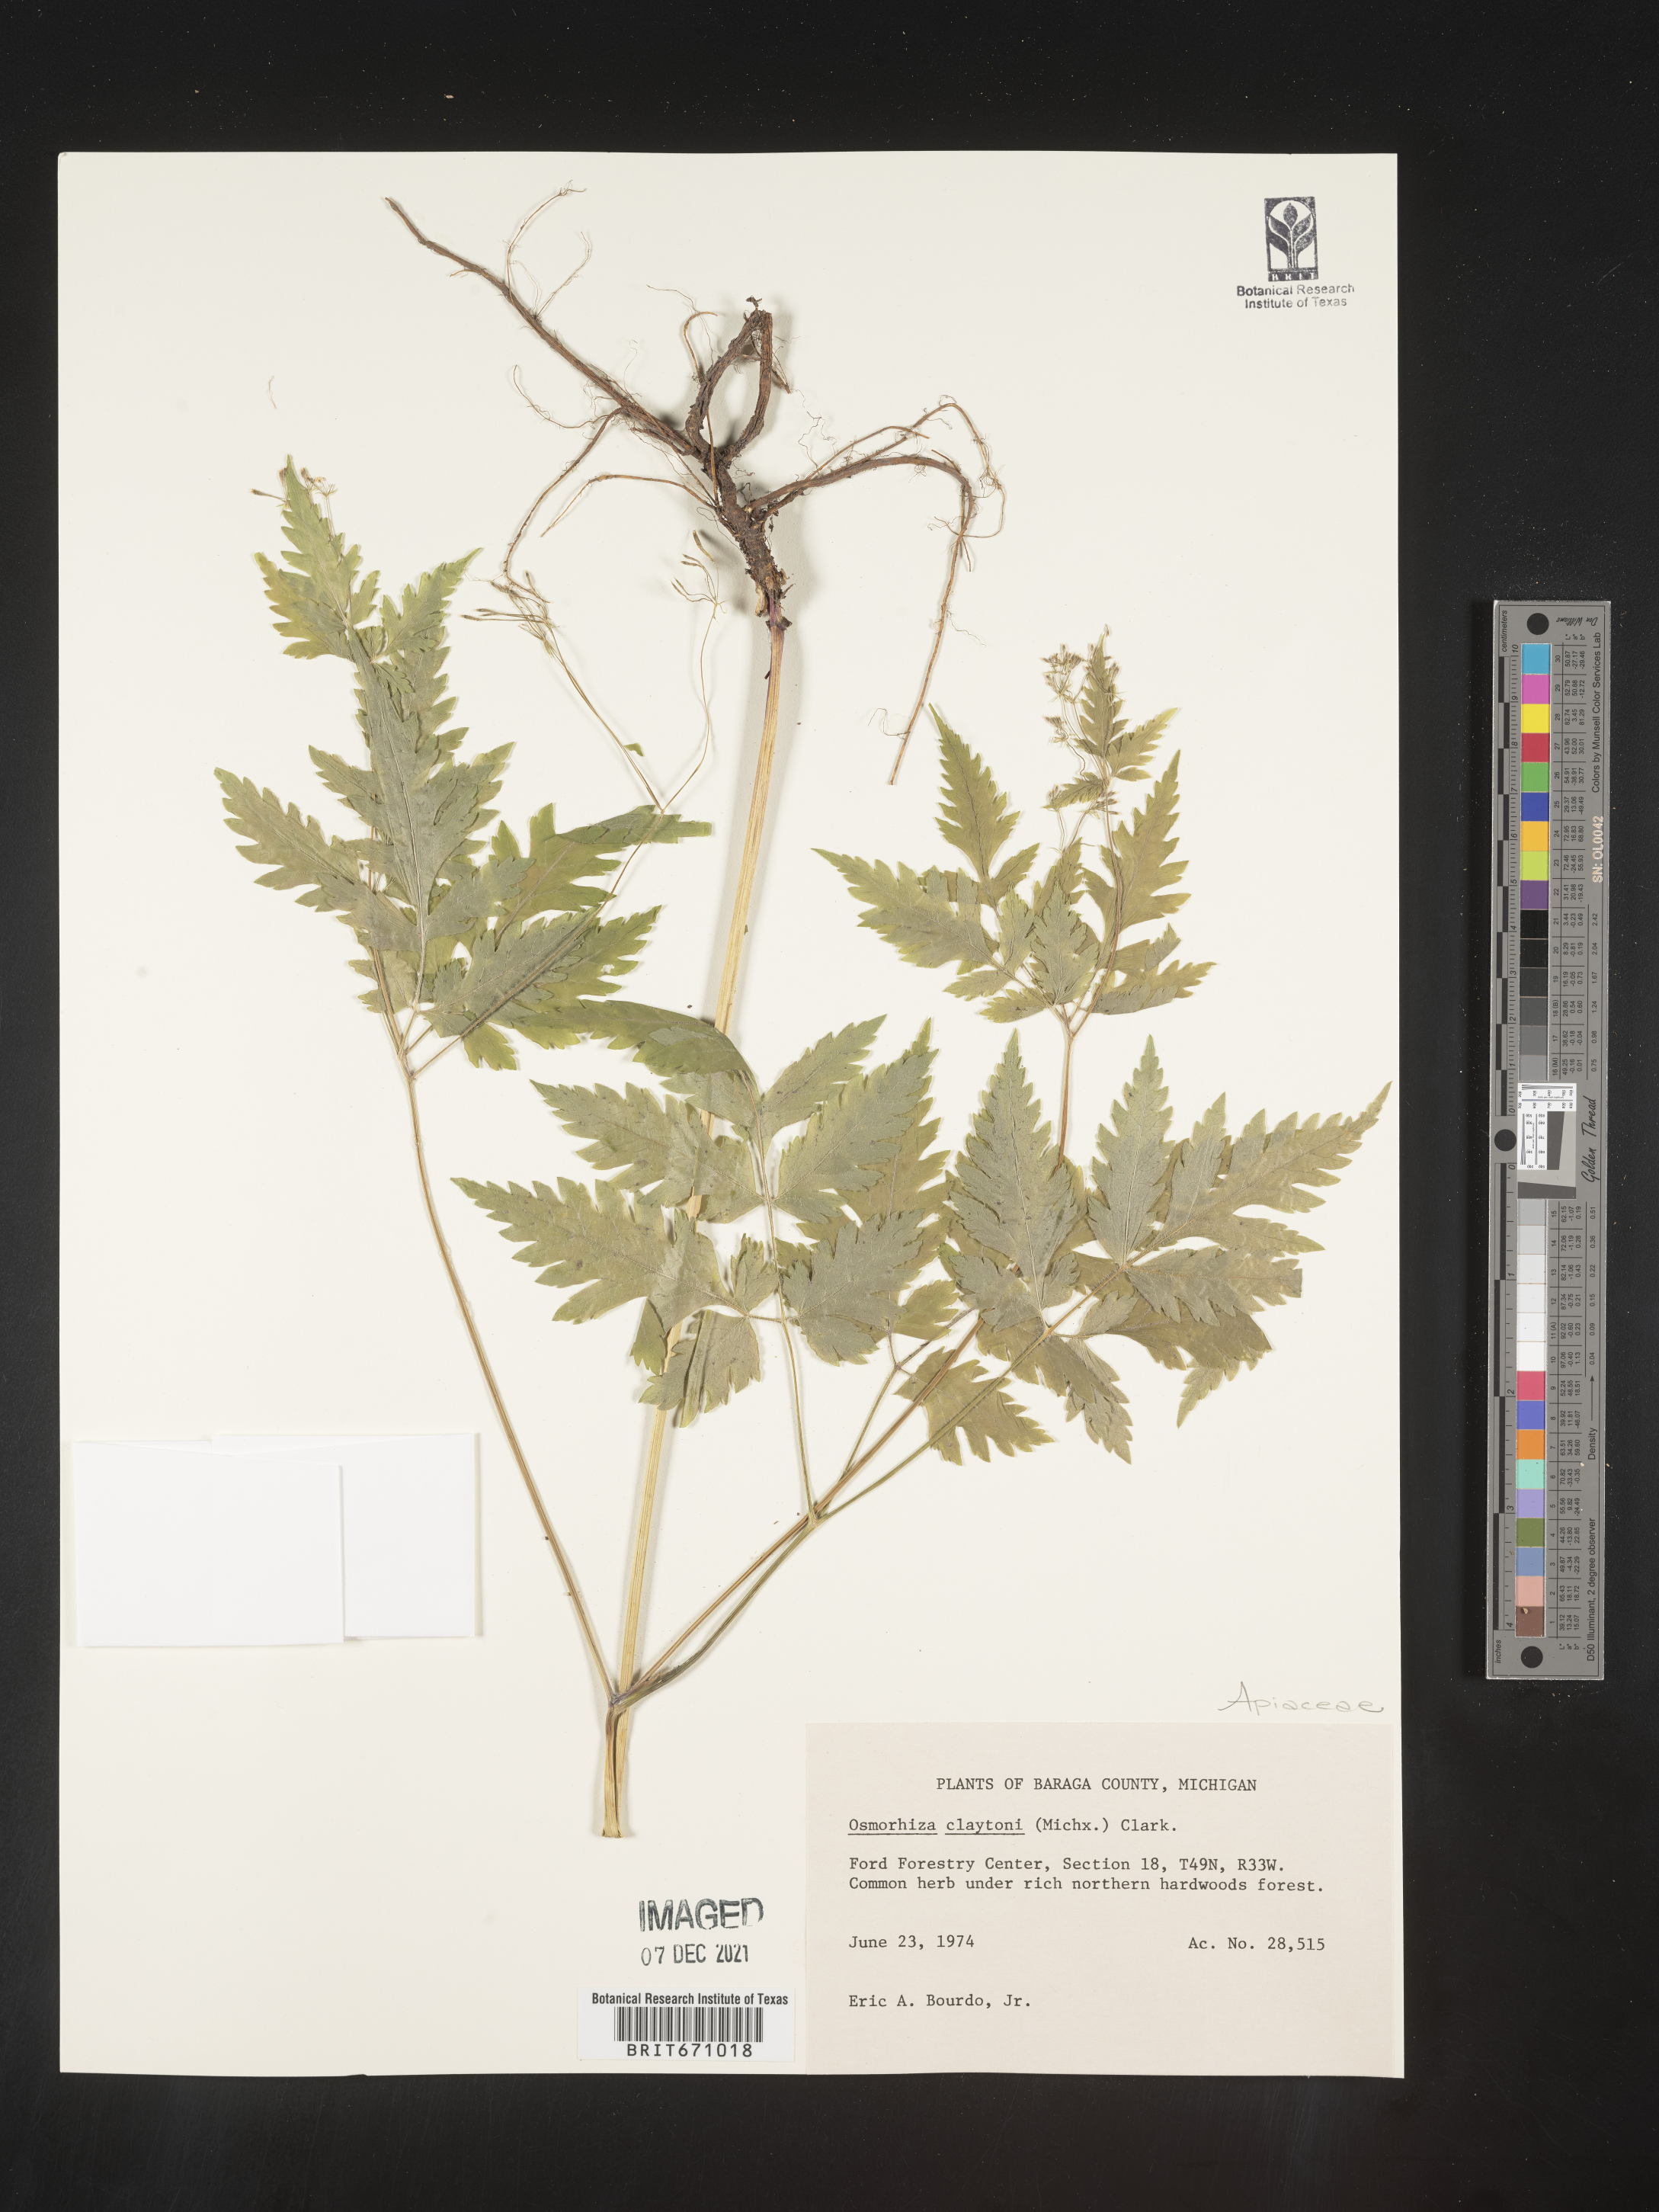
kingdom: Plantae
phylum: Tracheophyta
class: Magnoliopsida
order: Apiales
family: Apiaceae
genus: Osmorhiza
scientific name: Osmorhiza claytonii
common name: Hairy sweet cicely
